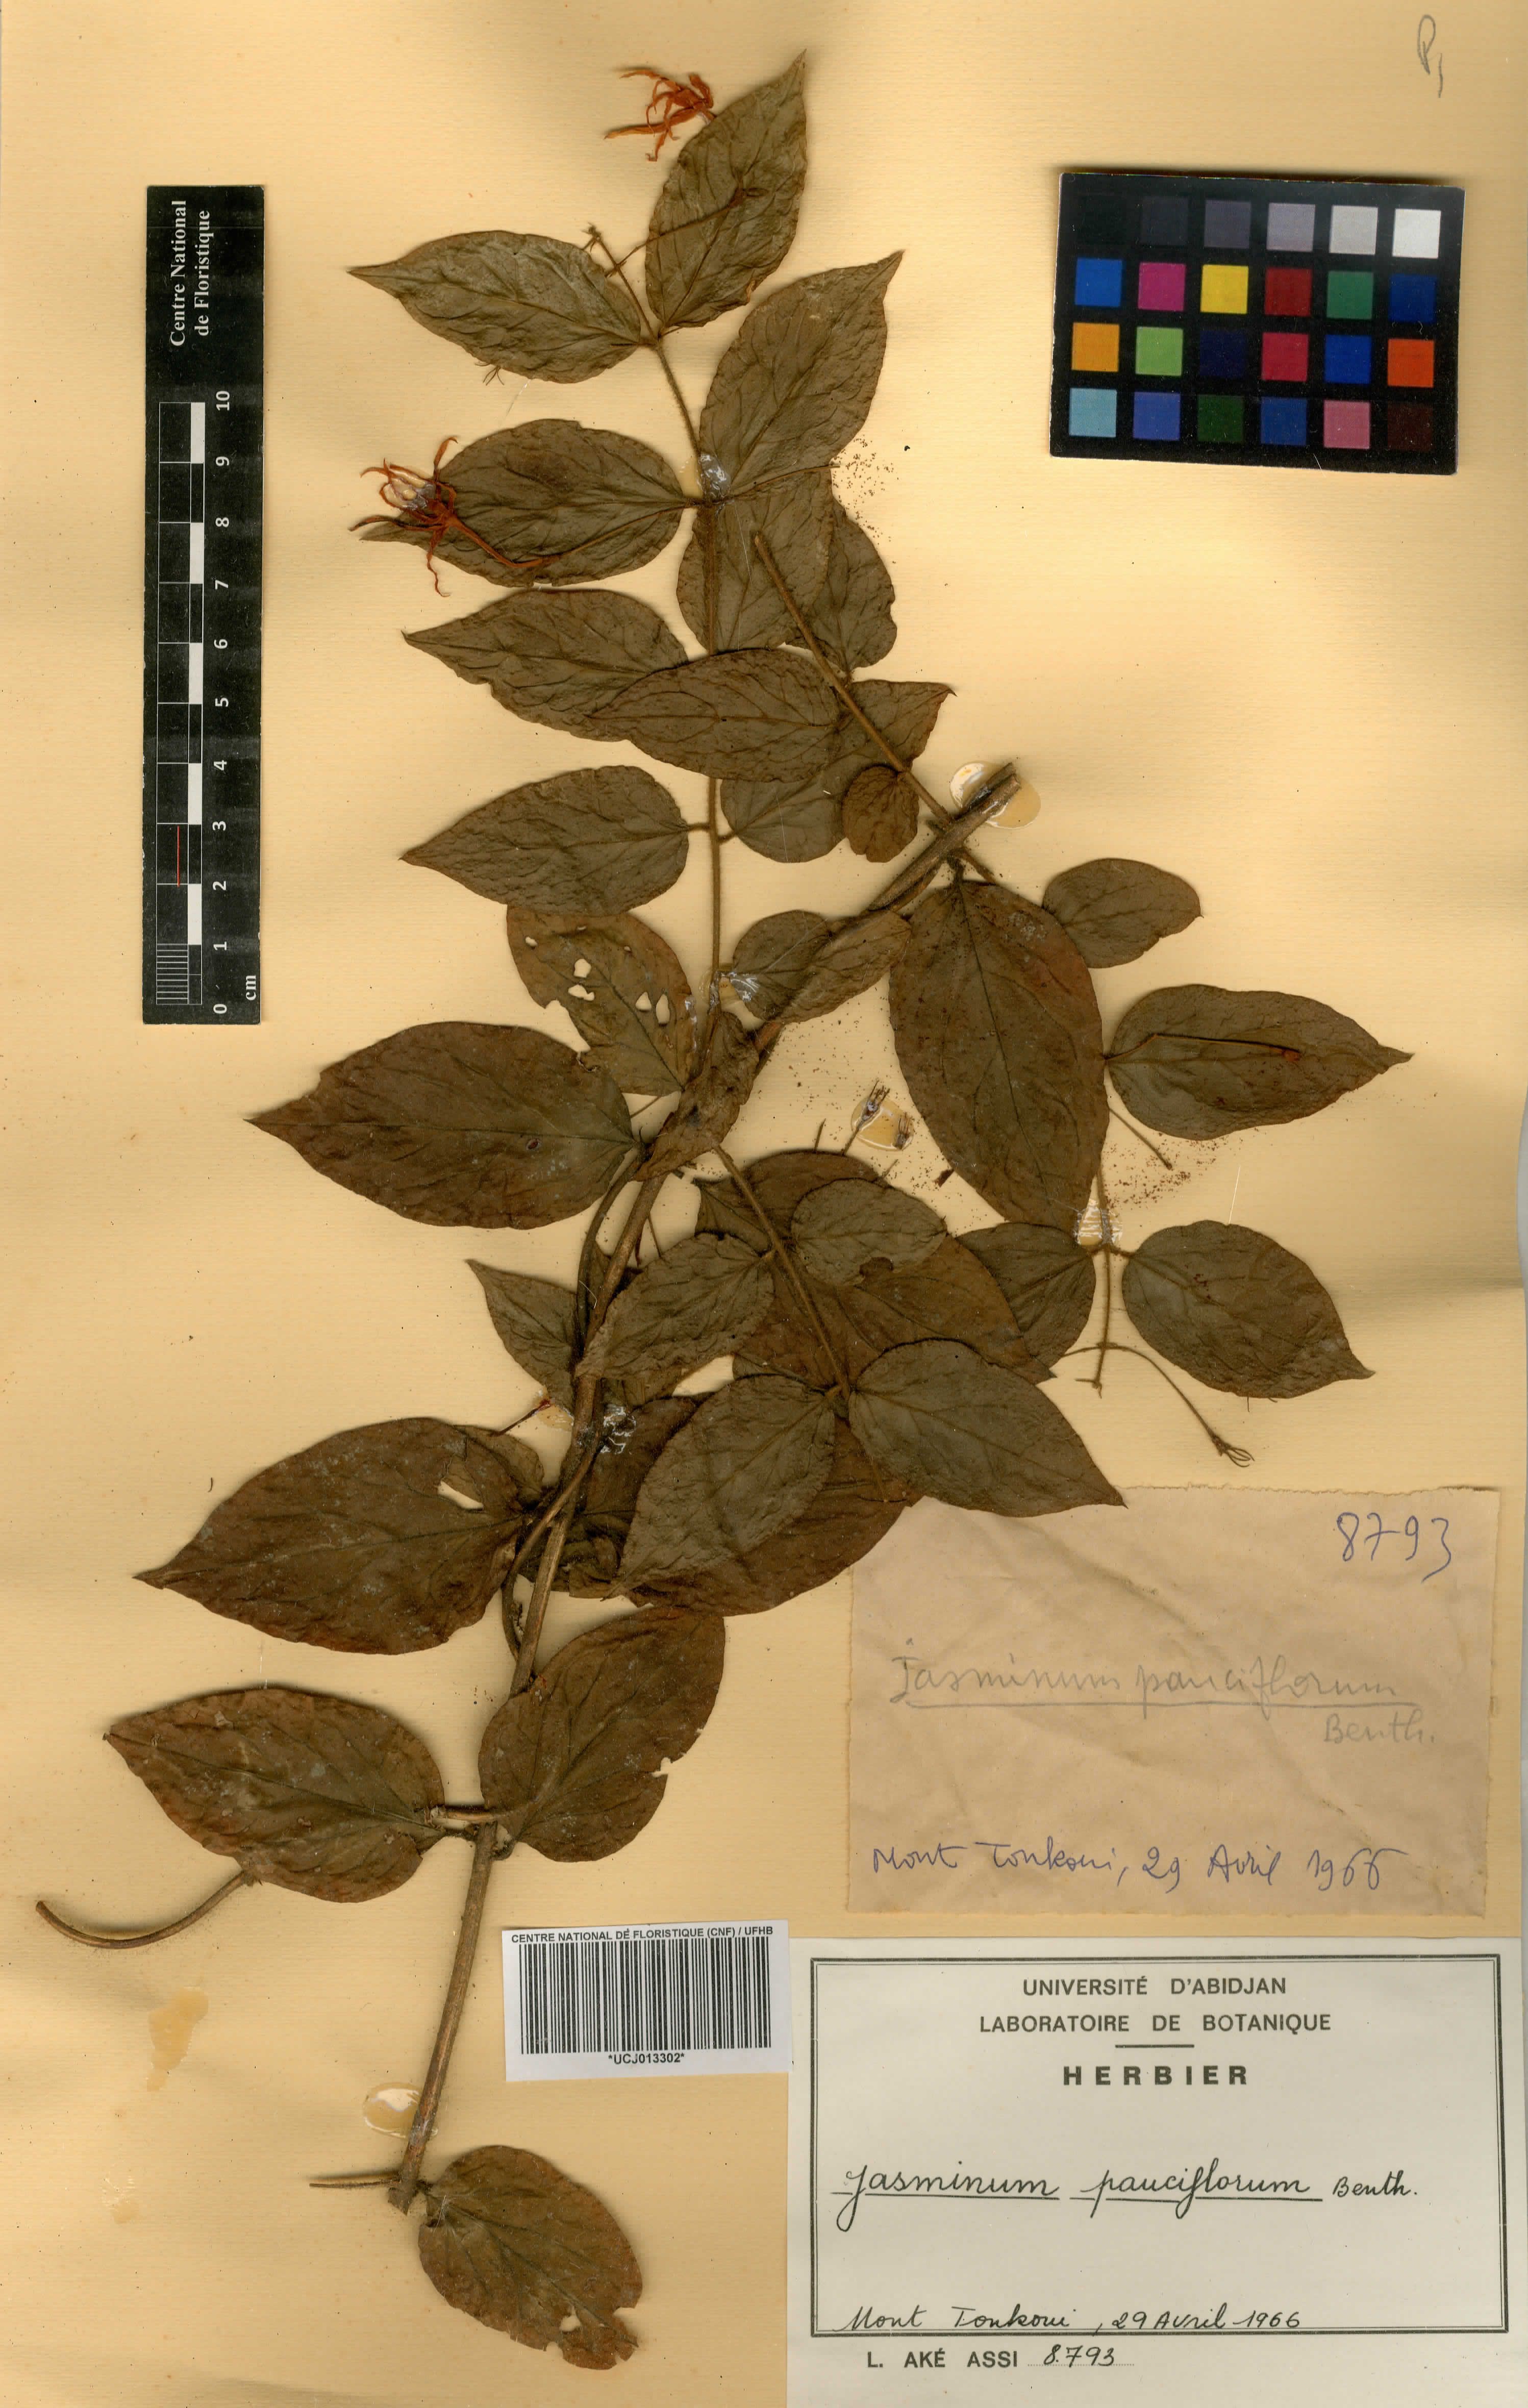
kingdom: Plantae
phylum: Tracheophyta
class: Magnoliopsida
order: Lamiales
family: Oleaceae
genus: Jasminum
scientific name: Jasminum pauciflorum
